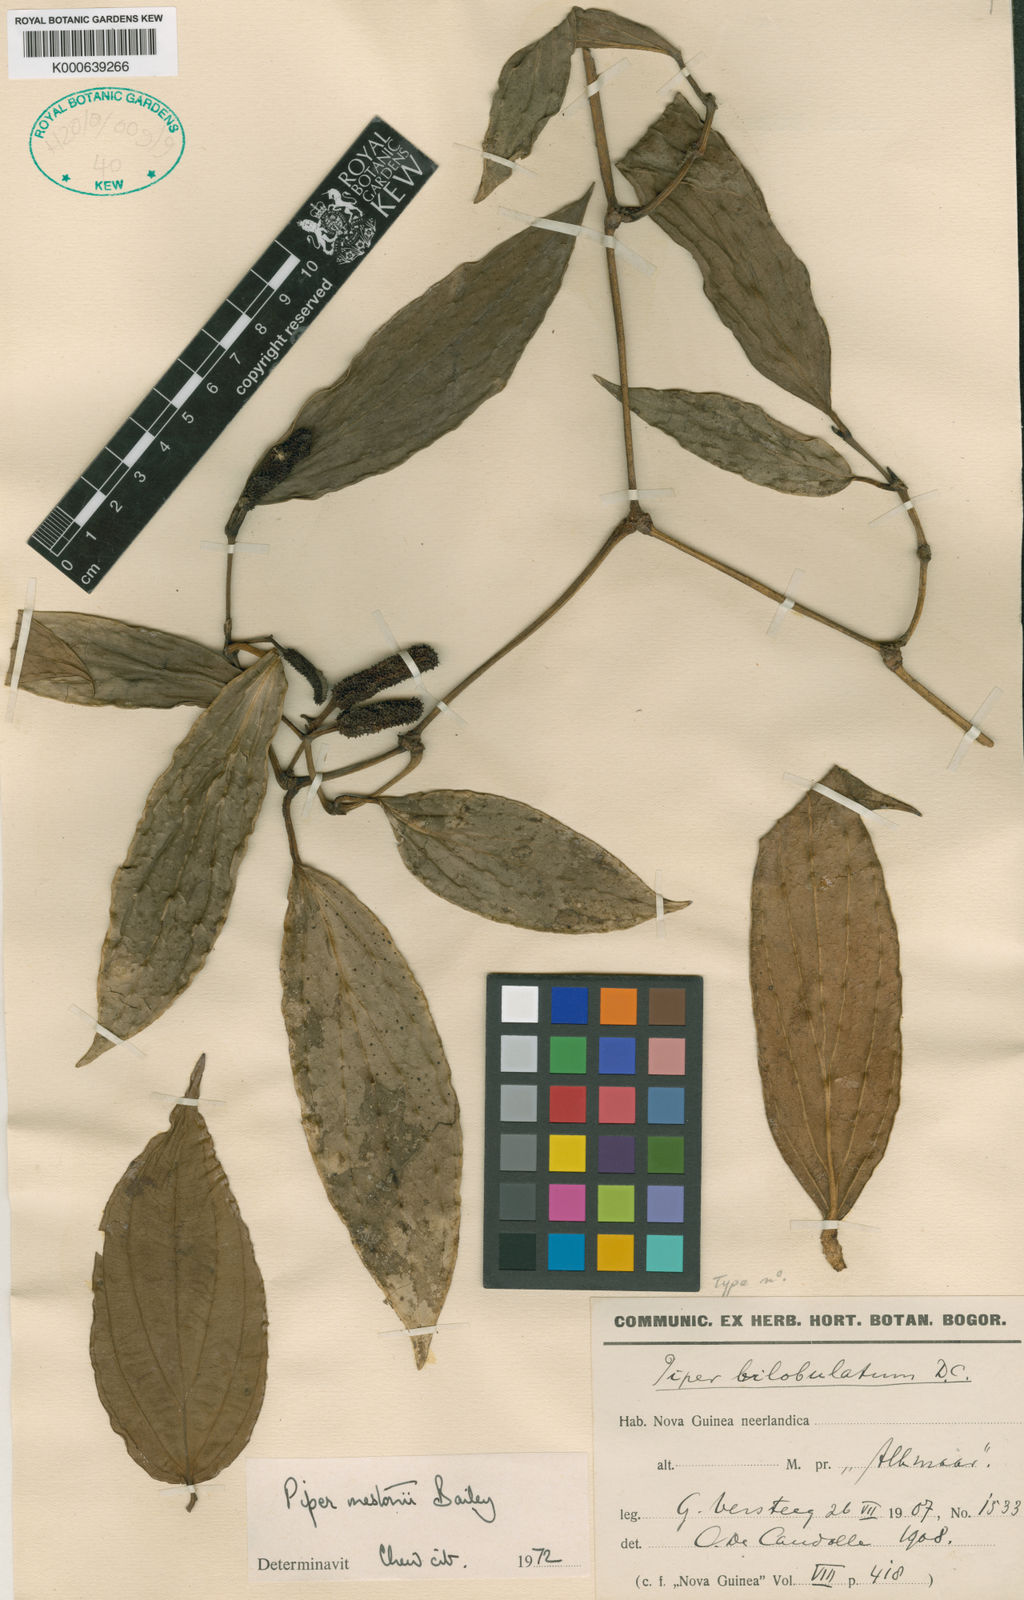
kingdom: Plantae
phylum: Tracheophyta
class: Magnoliopsida
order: Piperales
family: Piperaceae
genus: Piper
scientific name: Piper mestonii
